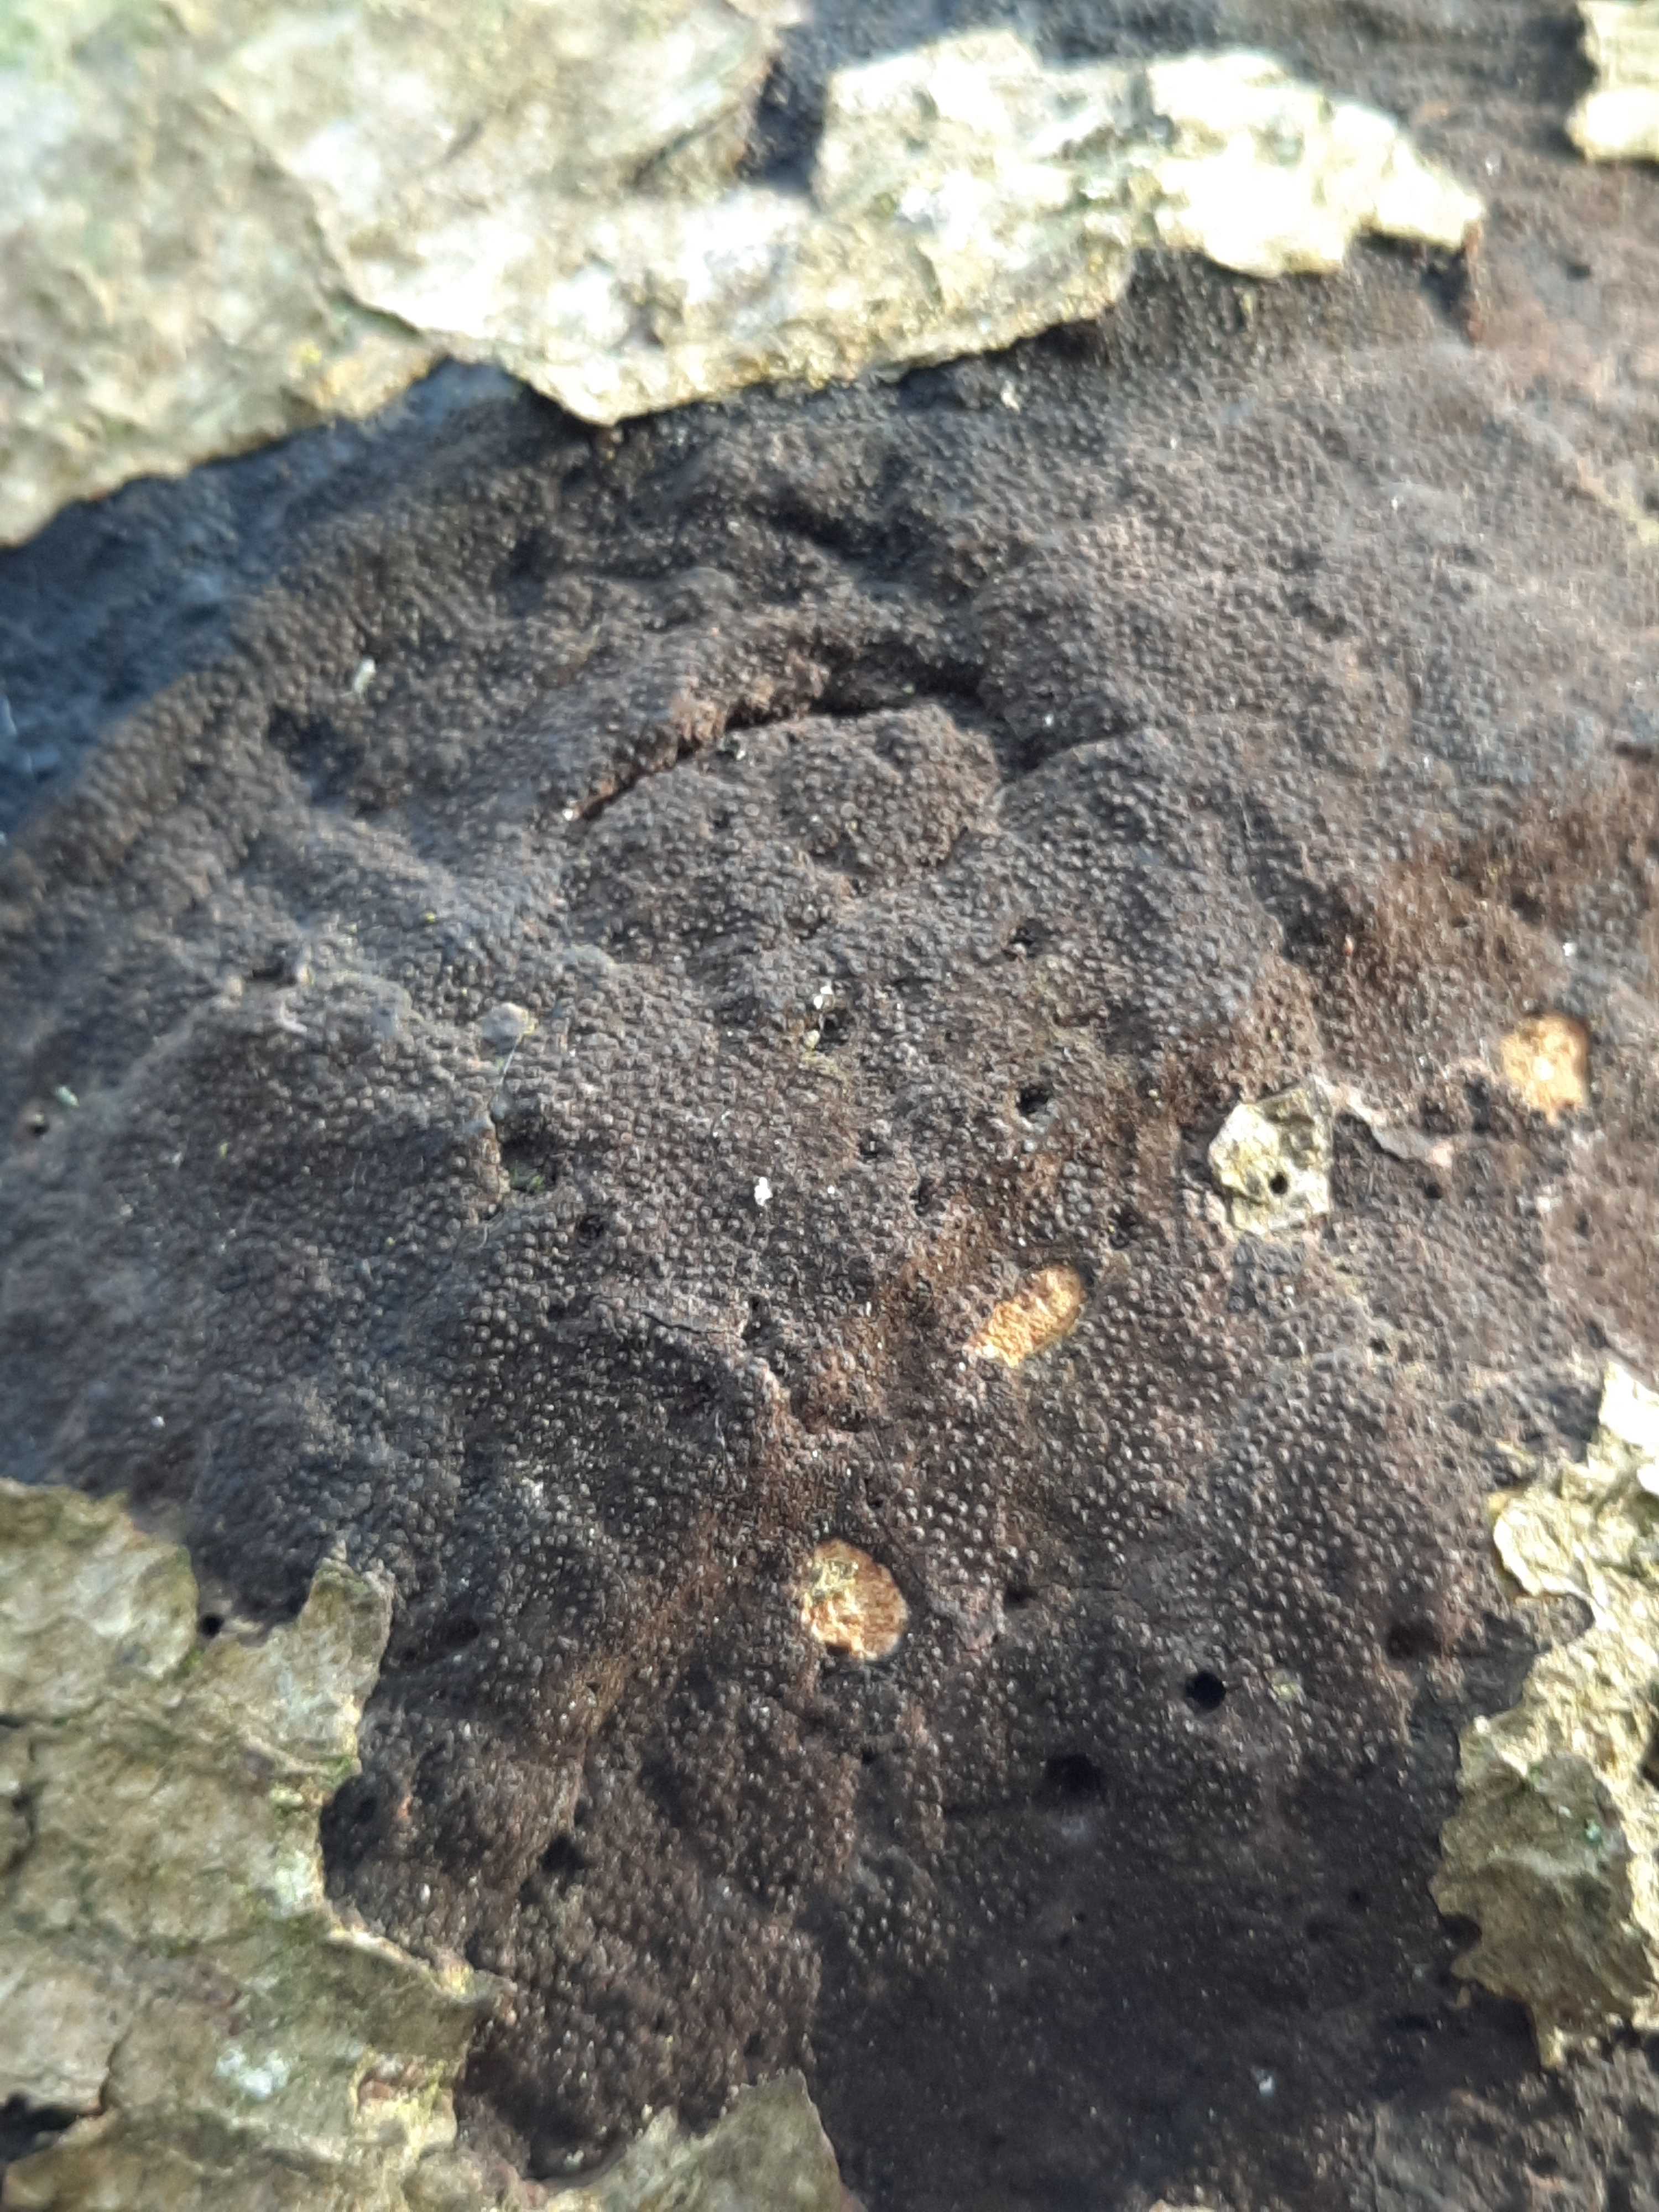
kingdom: Fungi
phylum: Ascomycota
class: Sordariomycetes
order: Xylariales
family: Diatrypaceae
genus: Eutypa
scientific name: Eutypa spinosa
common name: grov kulskorpe
